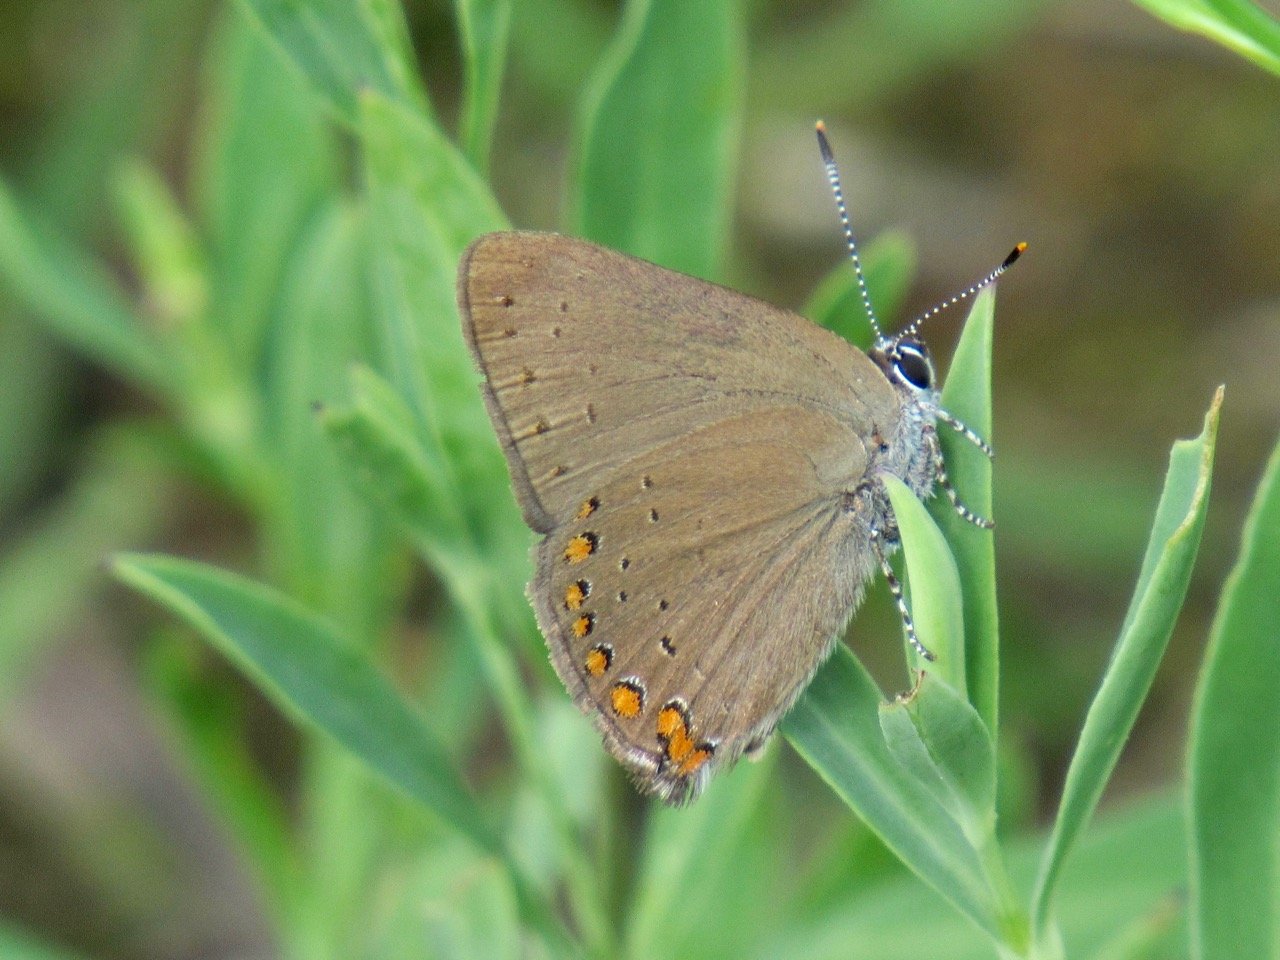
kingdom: Animalia
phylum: Arthropoda
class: Insecta
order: Lepidoptera
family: Lycaenidae
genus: Harkenclenus
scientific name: Harkenclenus titus
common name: Coral Hairstreak
